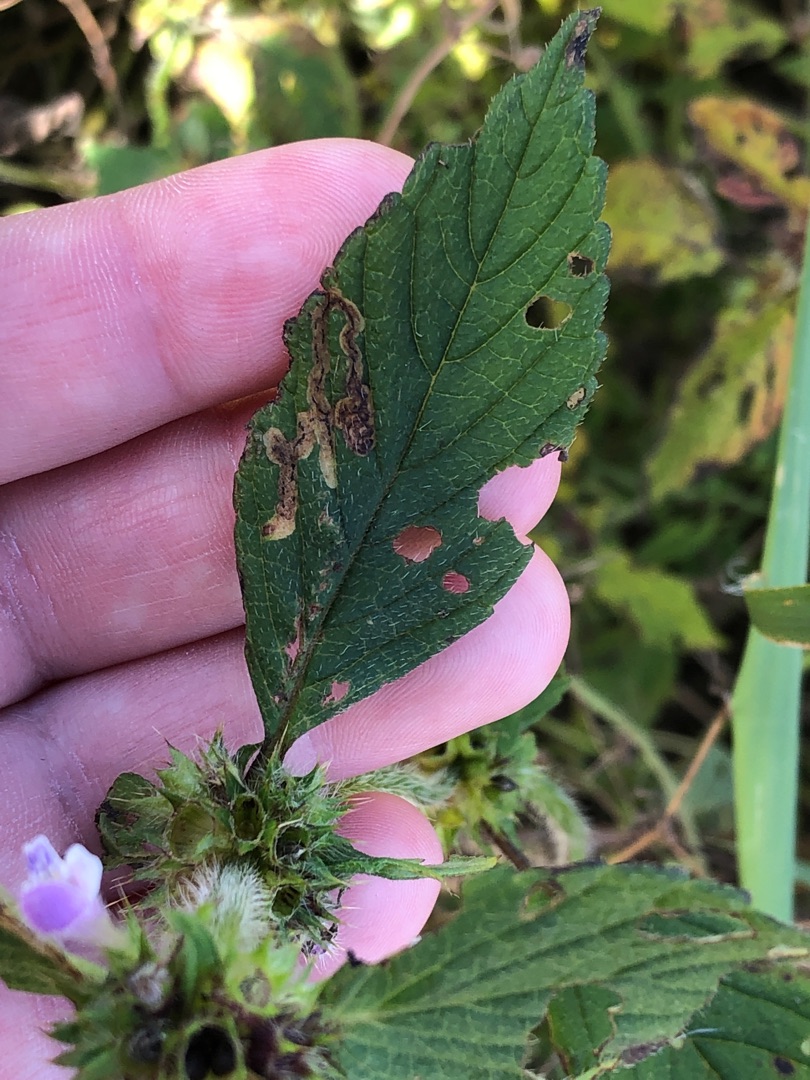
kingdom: Plantae
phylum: Tracheophyta
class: Magnoliopsida
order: Lamiales
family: Lamiaceae
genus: Galeopsis
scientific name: Galeopsis bifida
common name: Skov-hanekro
